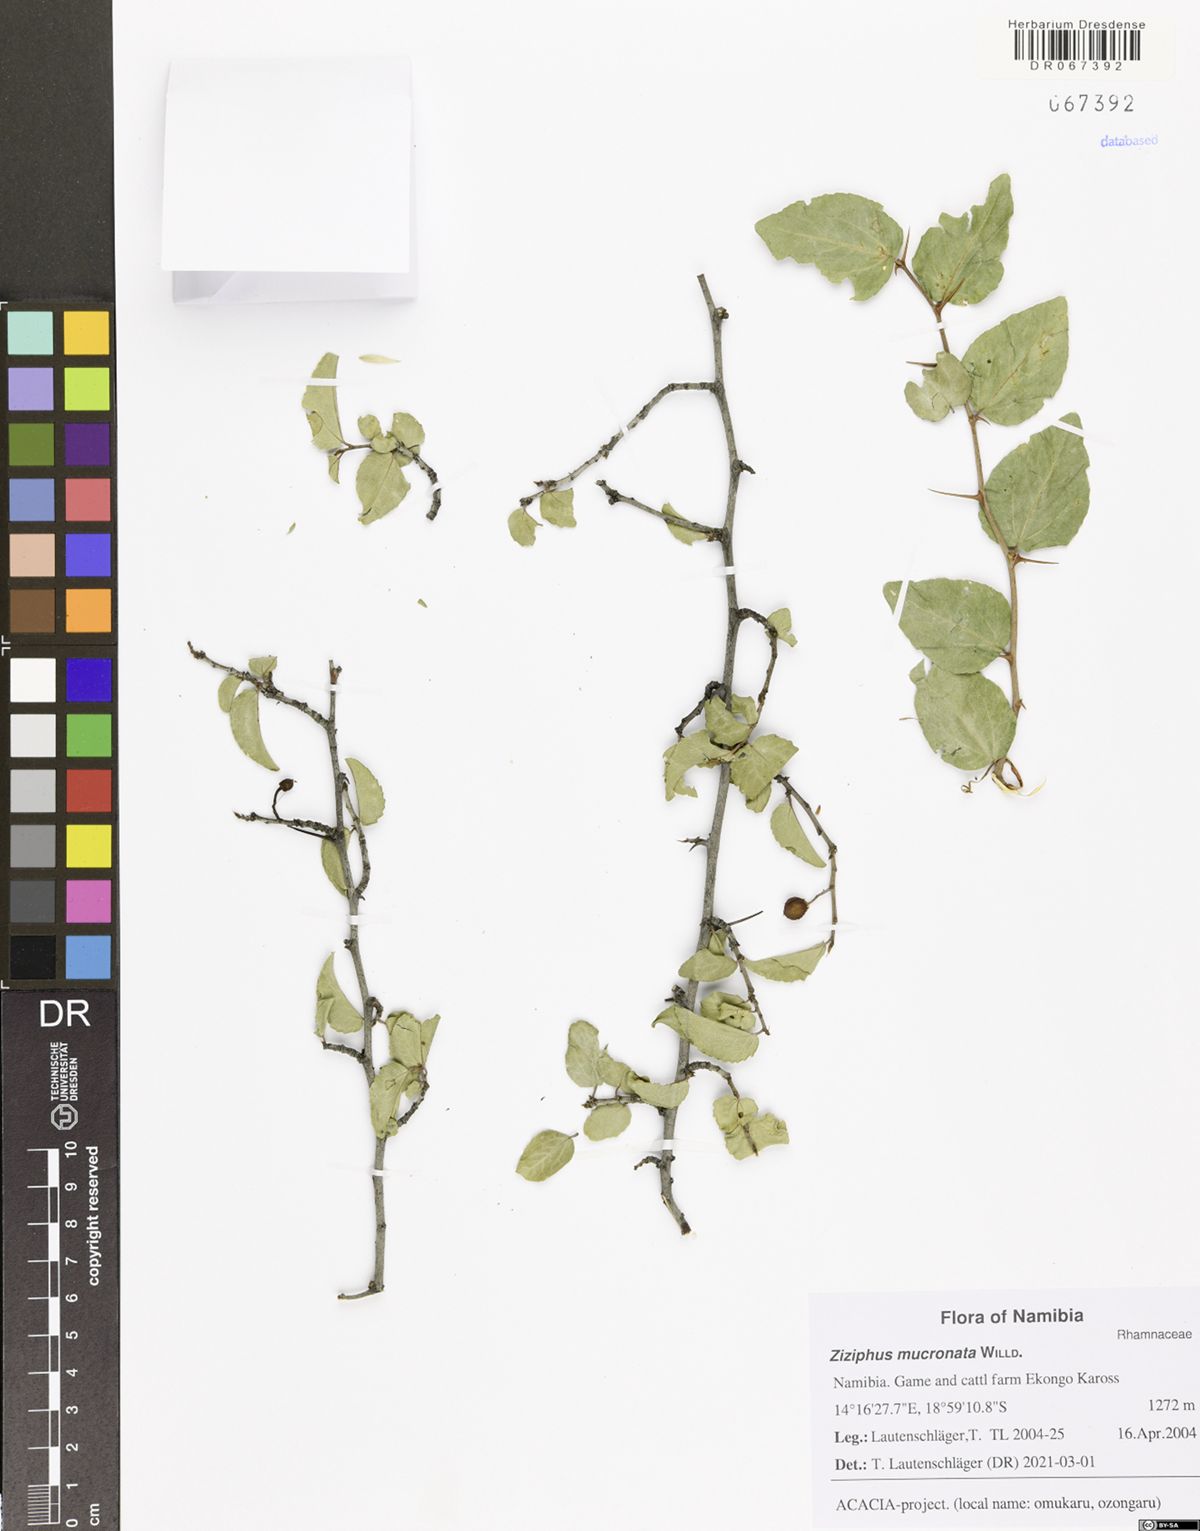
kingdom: Plantae
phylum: Tracheophyta
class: Magnoliopsida
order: Rosales
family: Rhamnaceae
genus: Ziziphus
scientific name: Ziziphus mucronata
